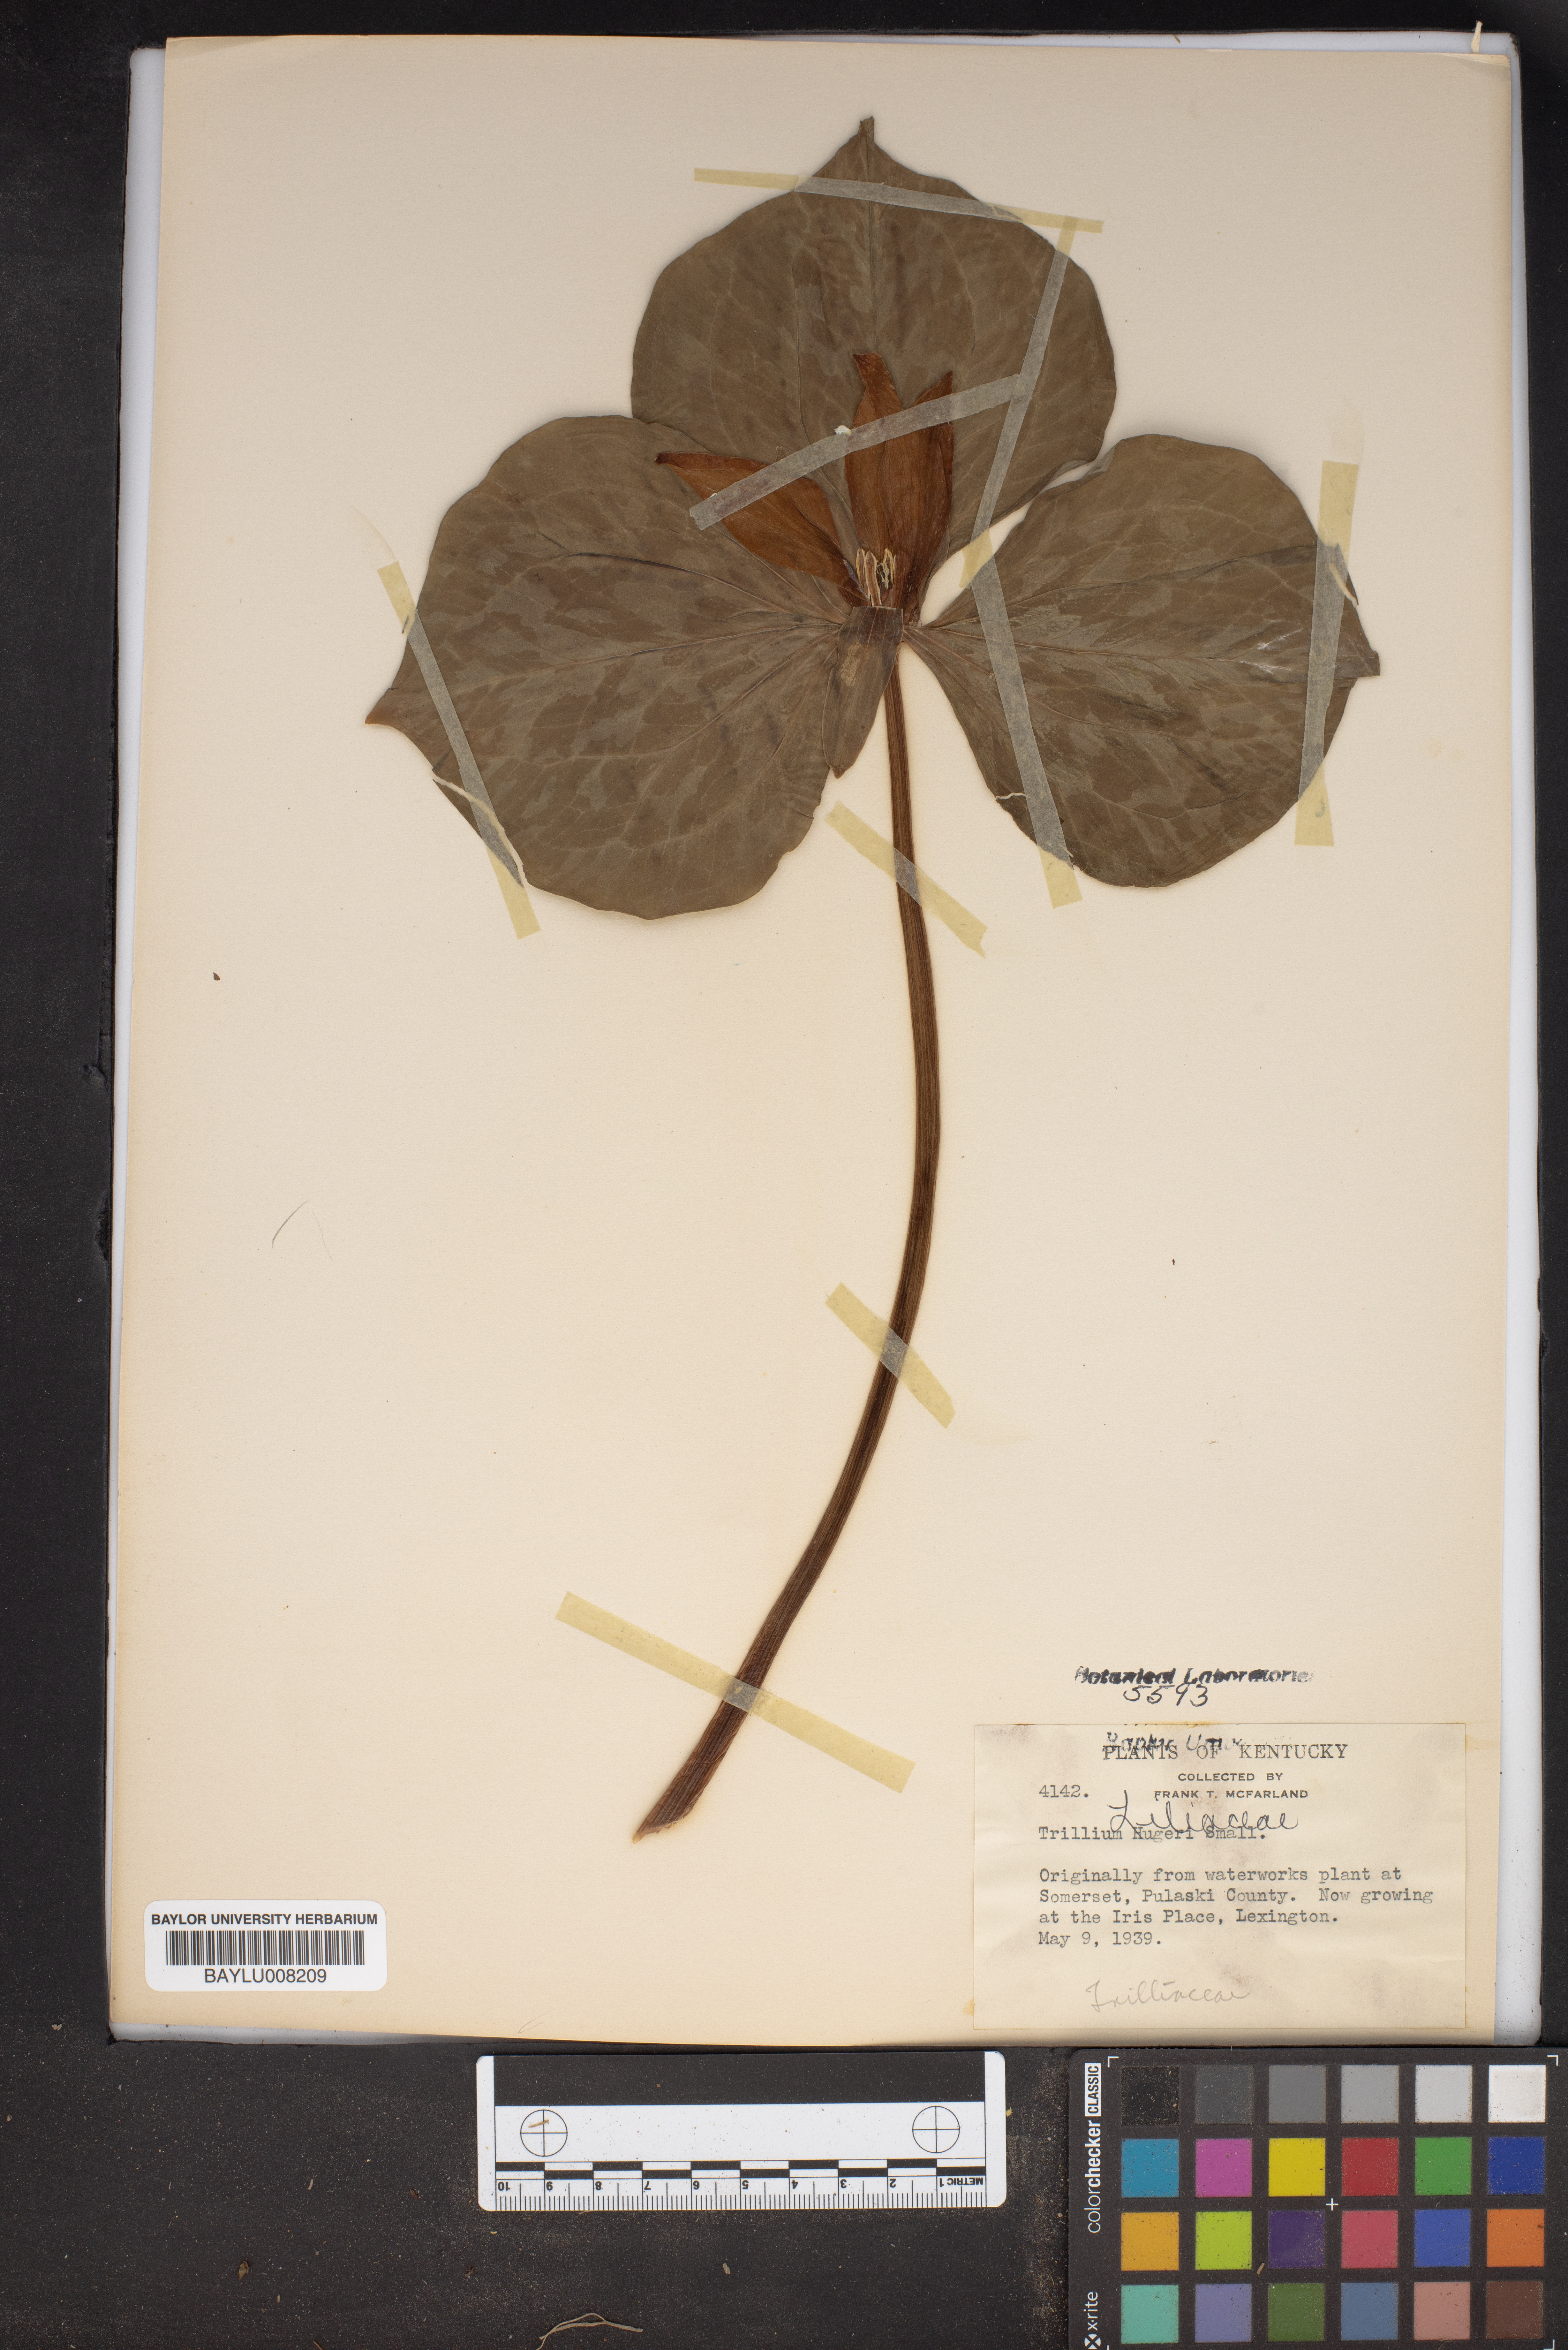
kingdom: Plantae
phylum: Tracheophyta
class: Liliopsida
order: Liliales
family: Melanthiaceae
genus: Trillium
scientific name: Trillium cuneatum
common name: Cuneate trillium
